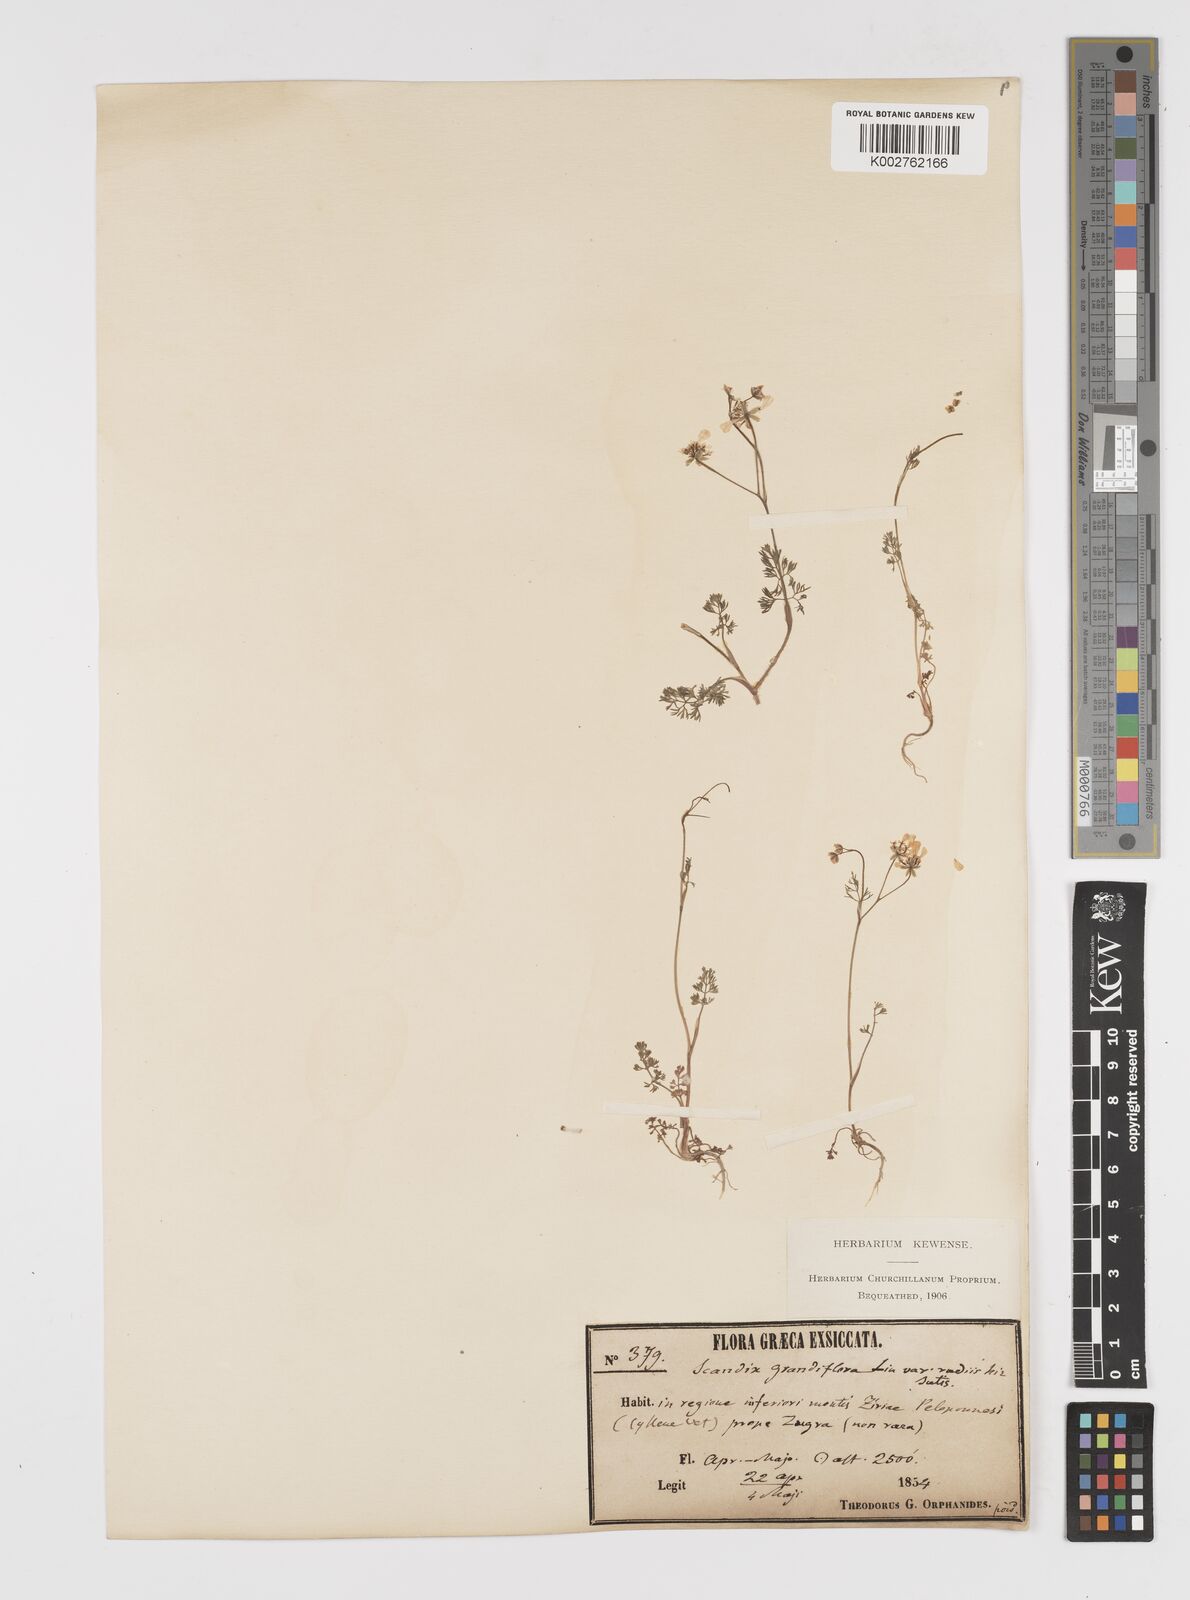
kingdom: Plantae
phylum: Tracheophyta
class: Magnoliopsida
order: Apiales
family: Apiaceae
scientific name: Apiaceae
